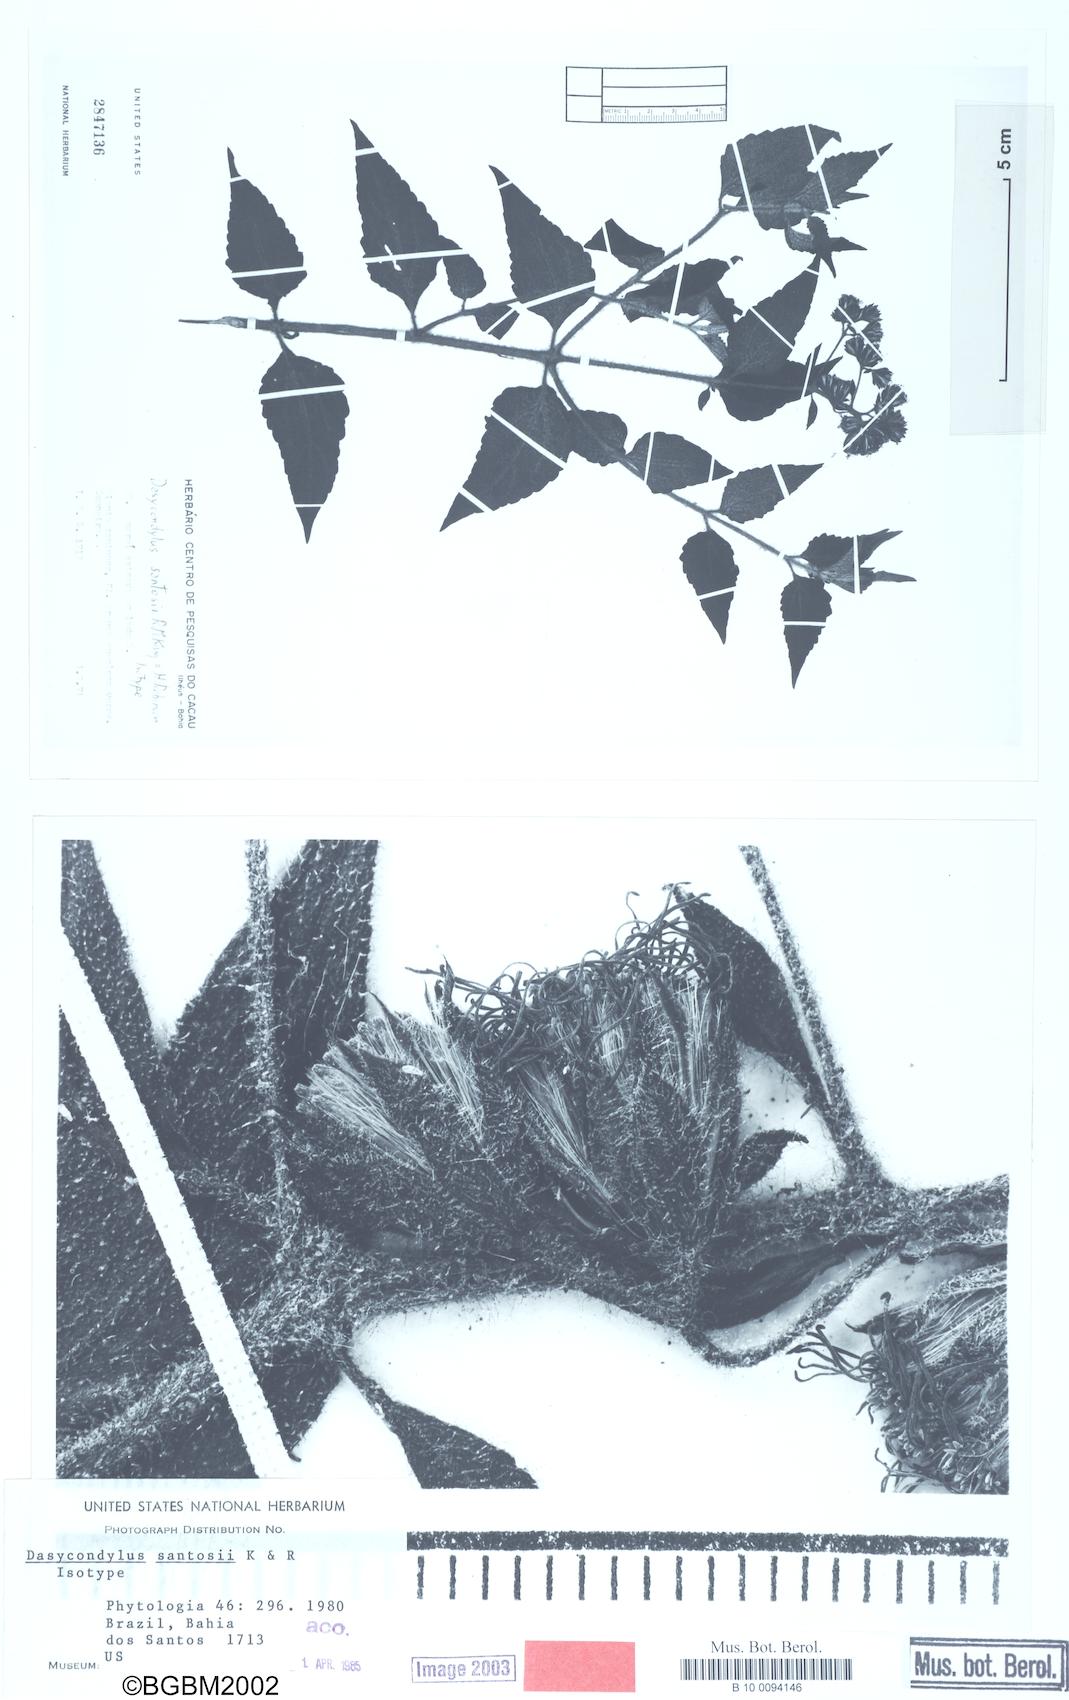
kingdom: Plantae
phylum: Tracheophyta
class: Magnoliopsida
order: Asterales
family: Asteraceae
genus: Dasycondylus
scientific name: Dasycondylus santosii
